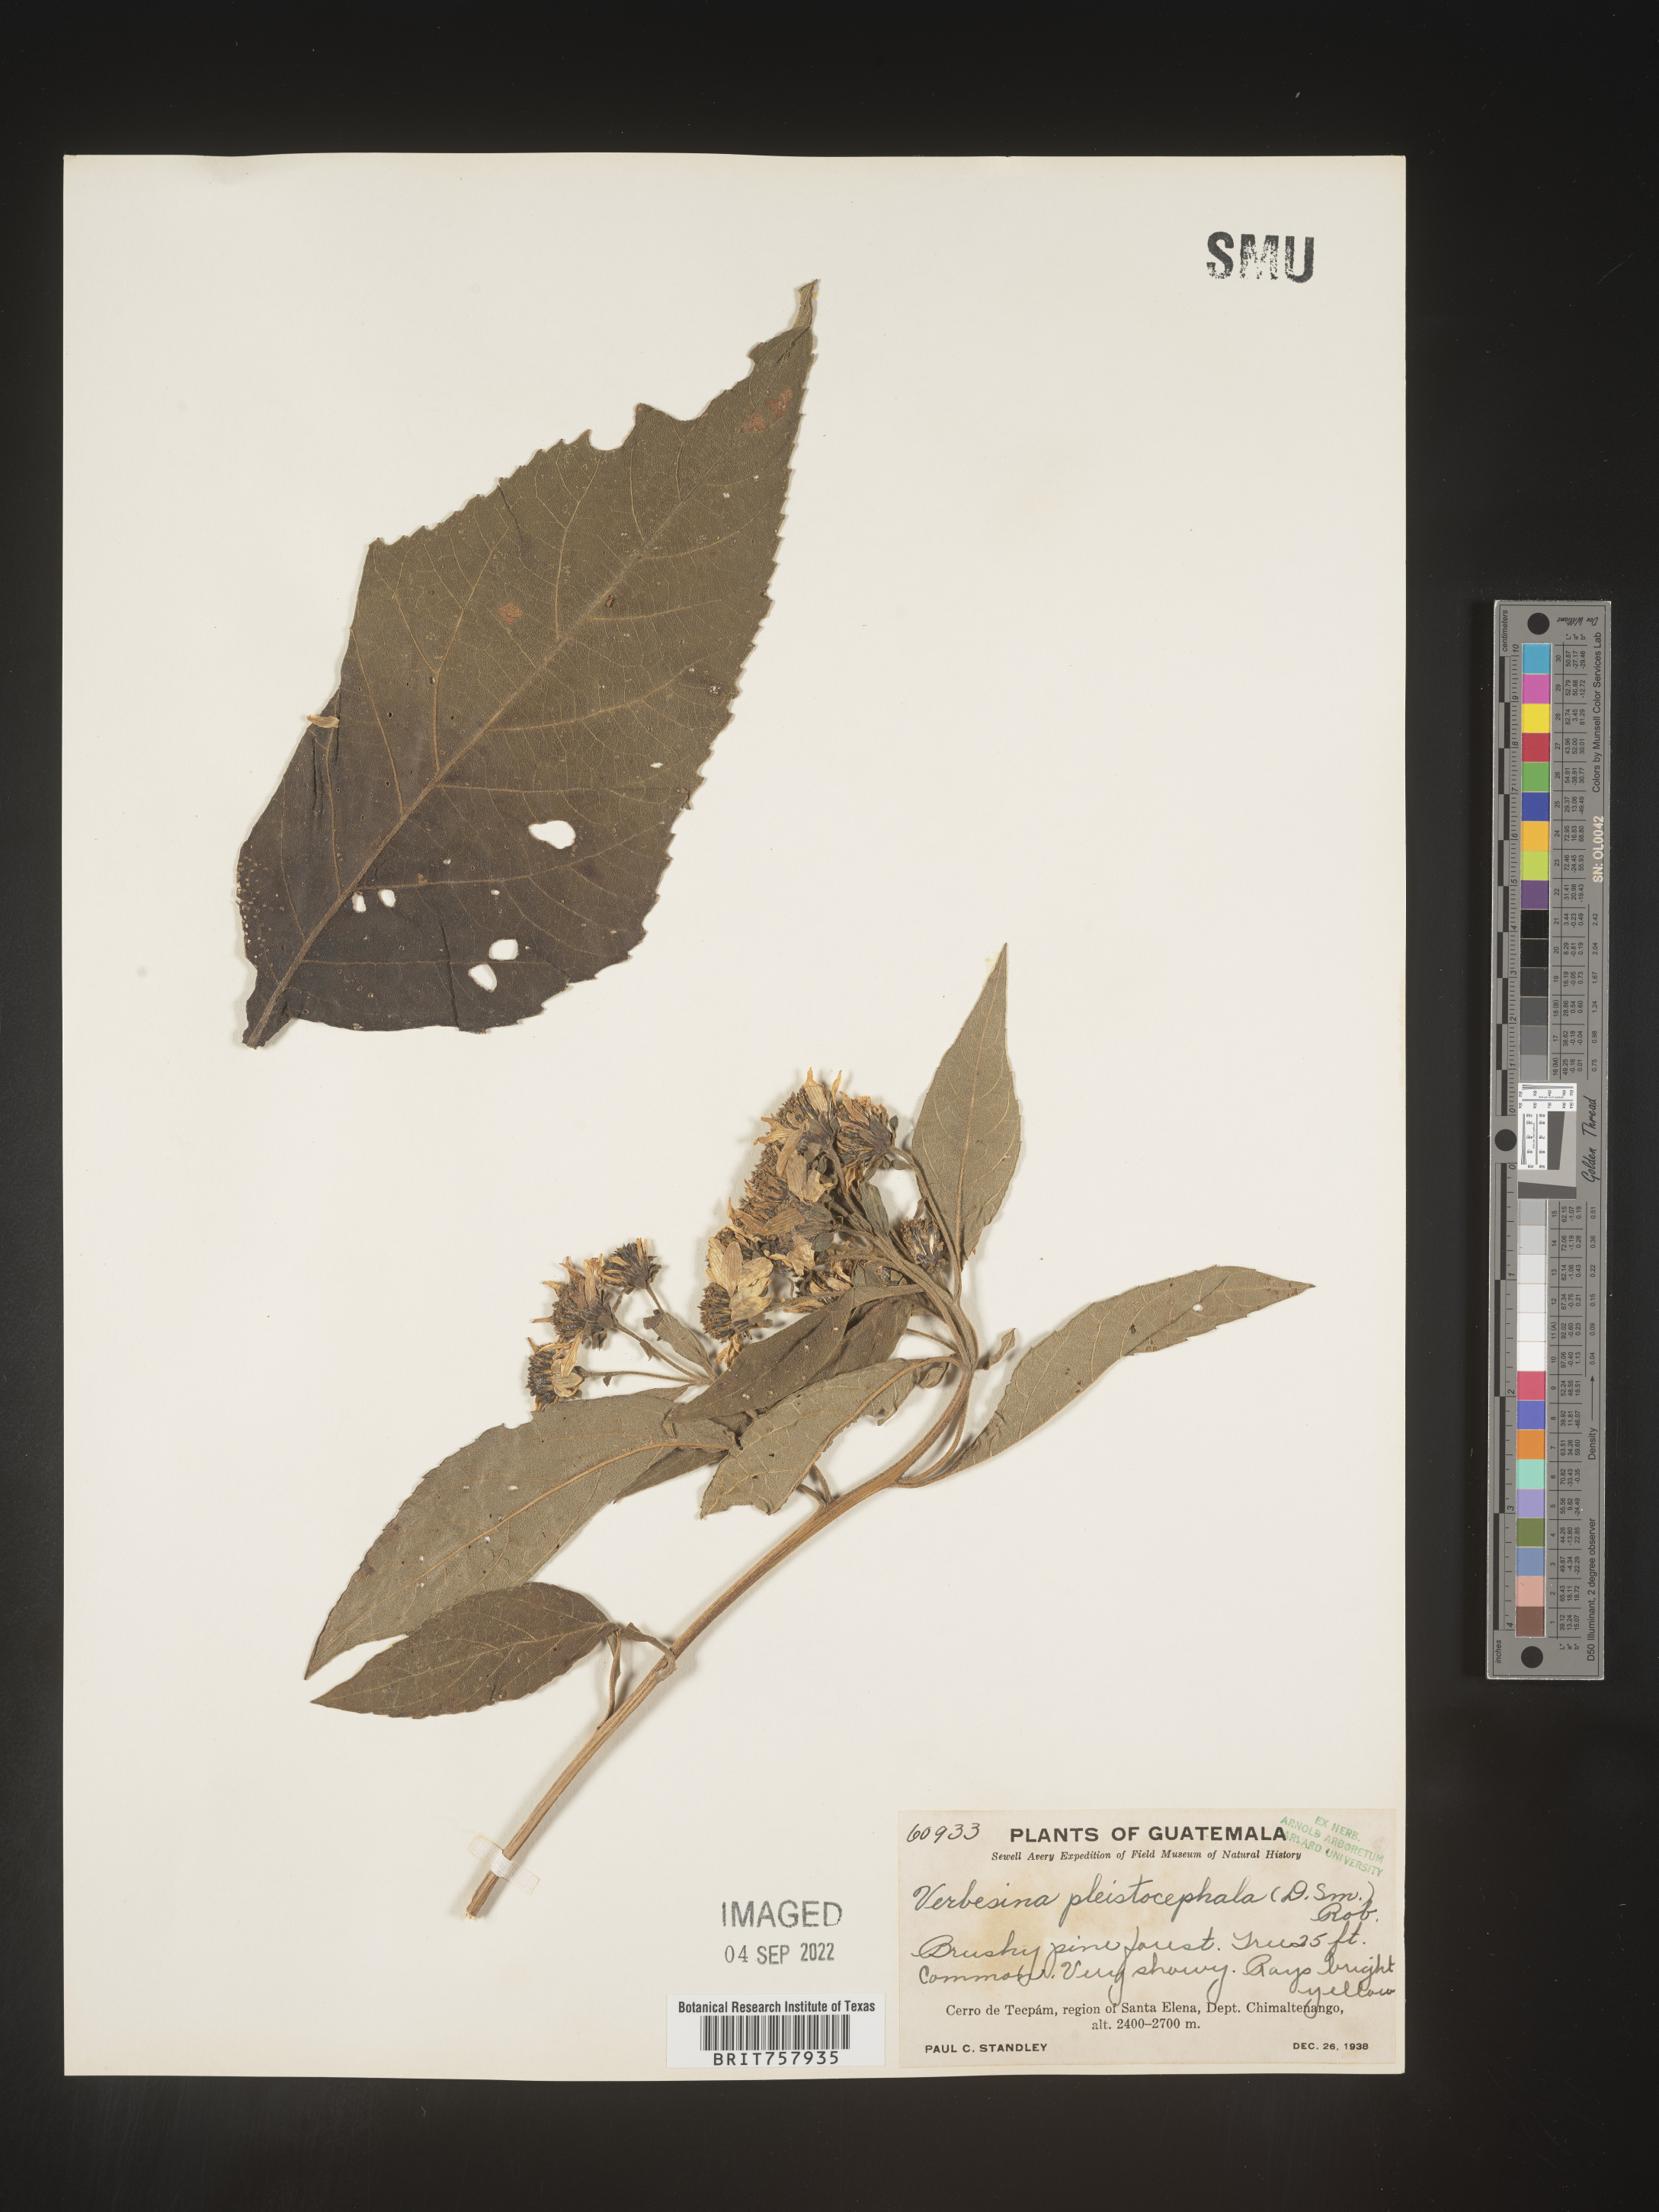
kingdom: Plantae
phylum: Tracheophyta
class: Magnoliopsida
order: Asterales
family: Asteraceae
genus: Verbesina
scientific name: Verbesina
